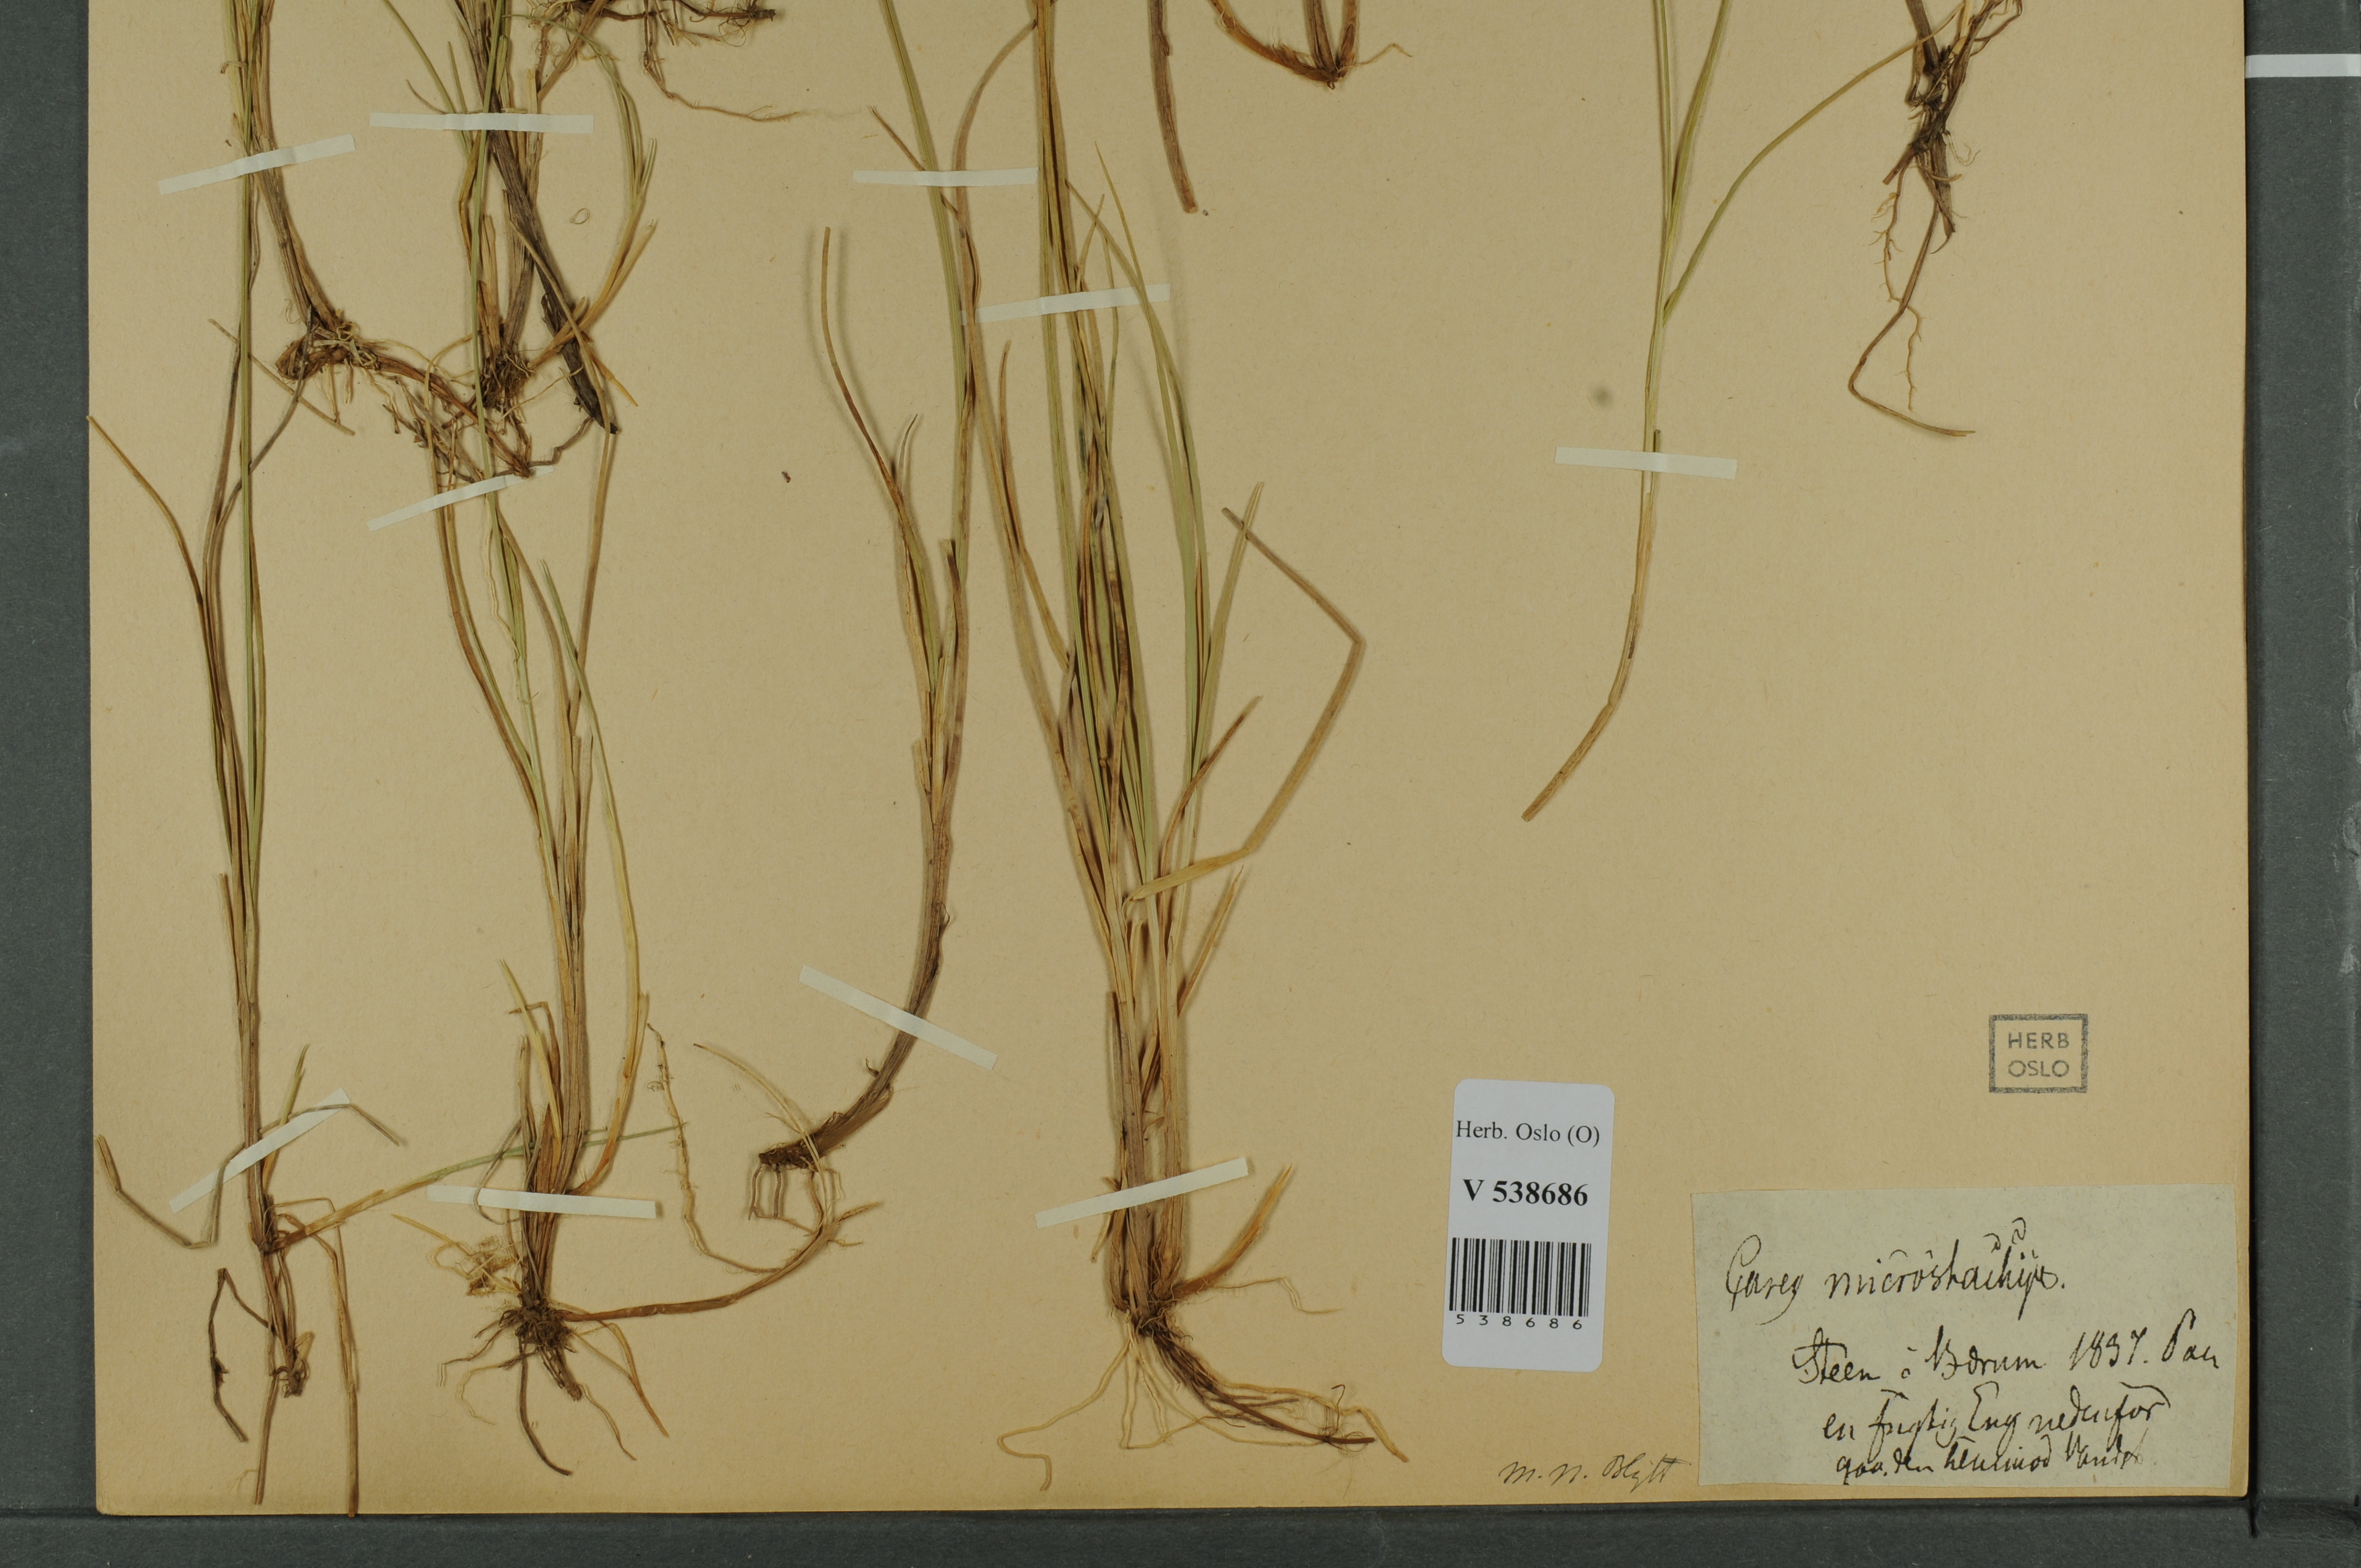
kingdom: Plantae
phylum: Tracheophyta
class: Liliopsida
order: Poales
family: Cyperaceae
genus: Carex
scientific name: Carex
